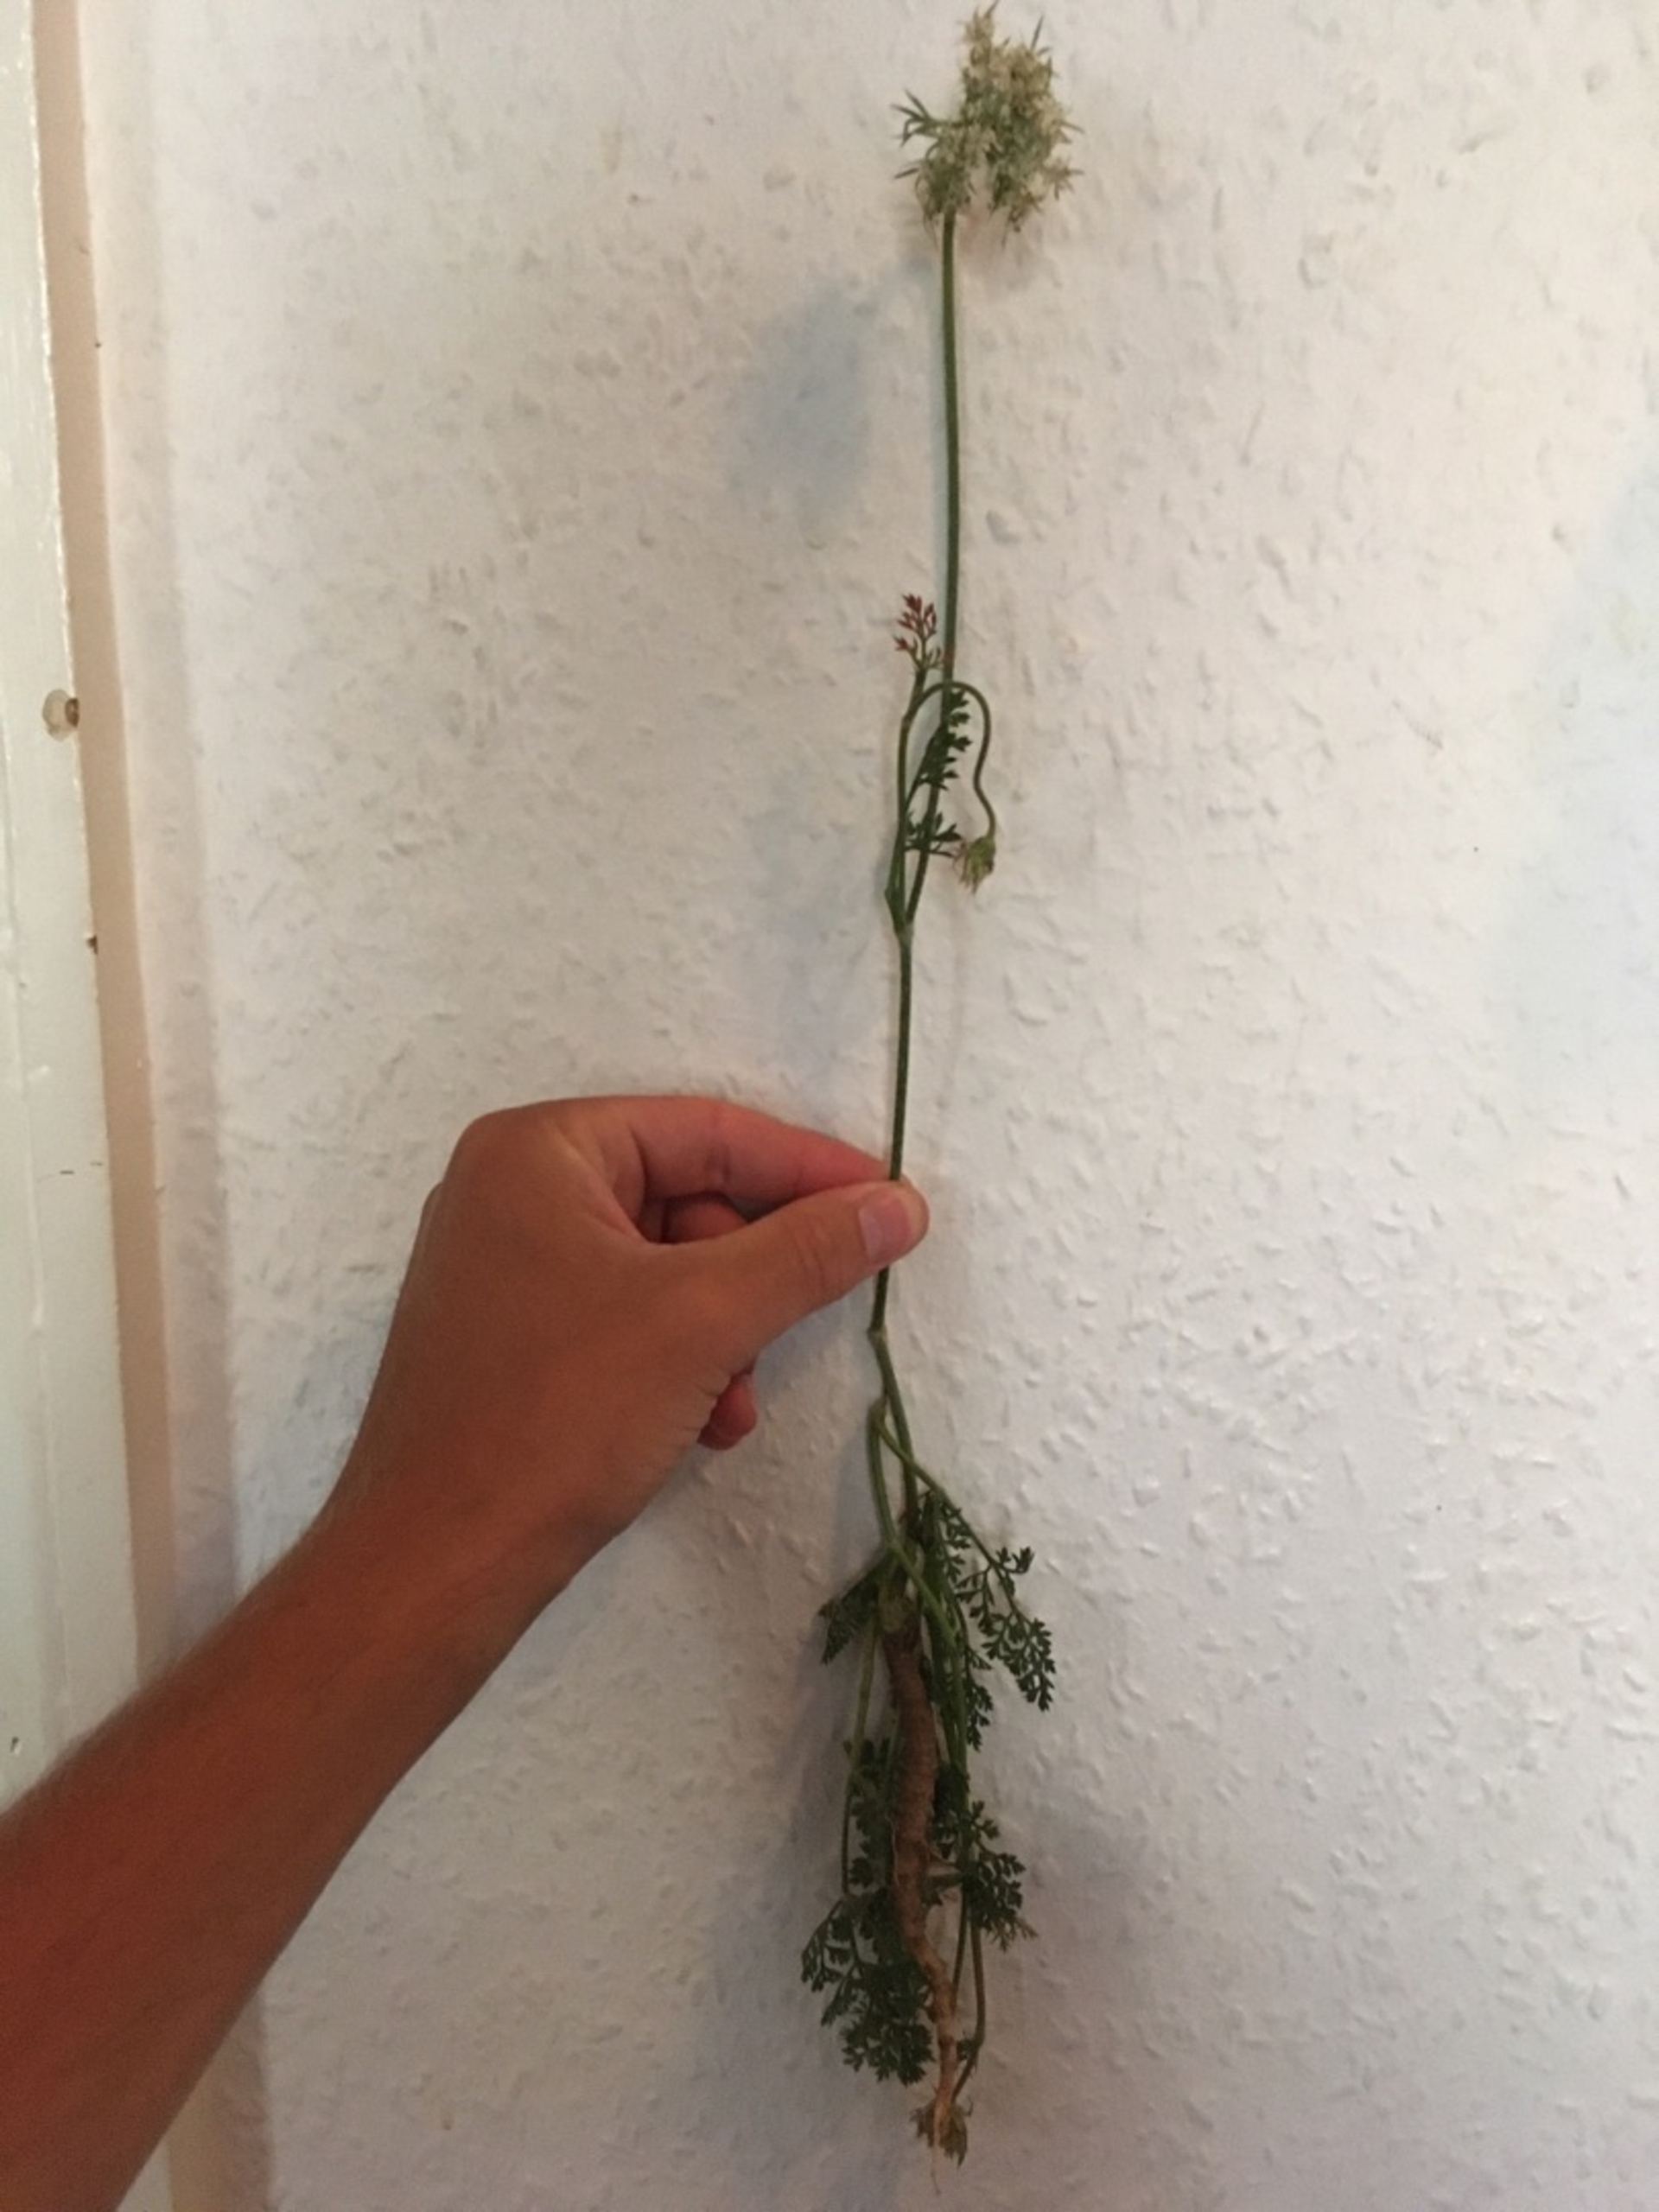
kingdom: Plantae
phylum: Tracheophyta
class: Magnoliopsida
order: Apiales
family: Apiaceae
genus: Daucus
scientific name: Daucus carota
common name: Vild gulerod
